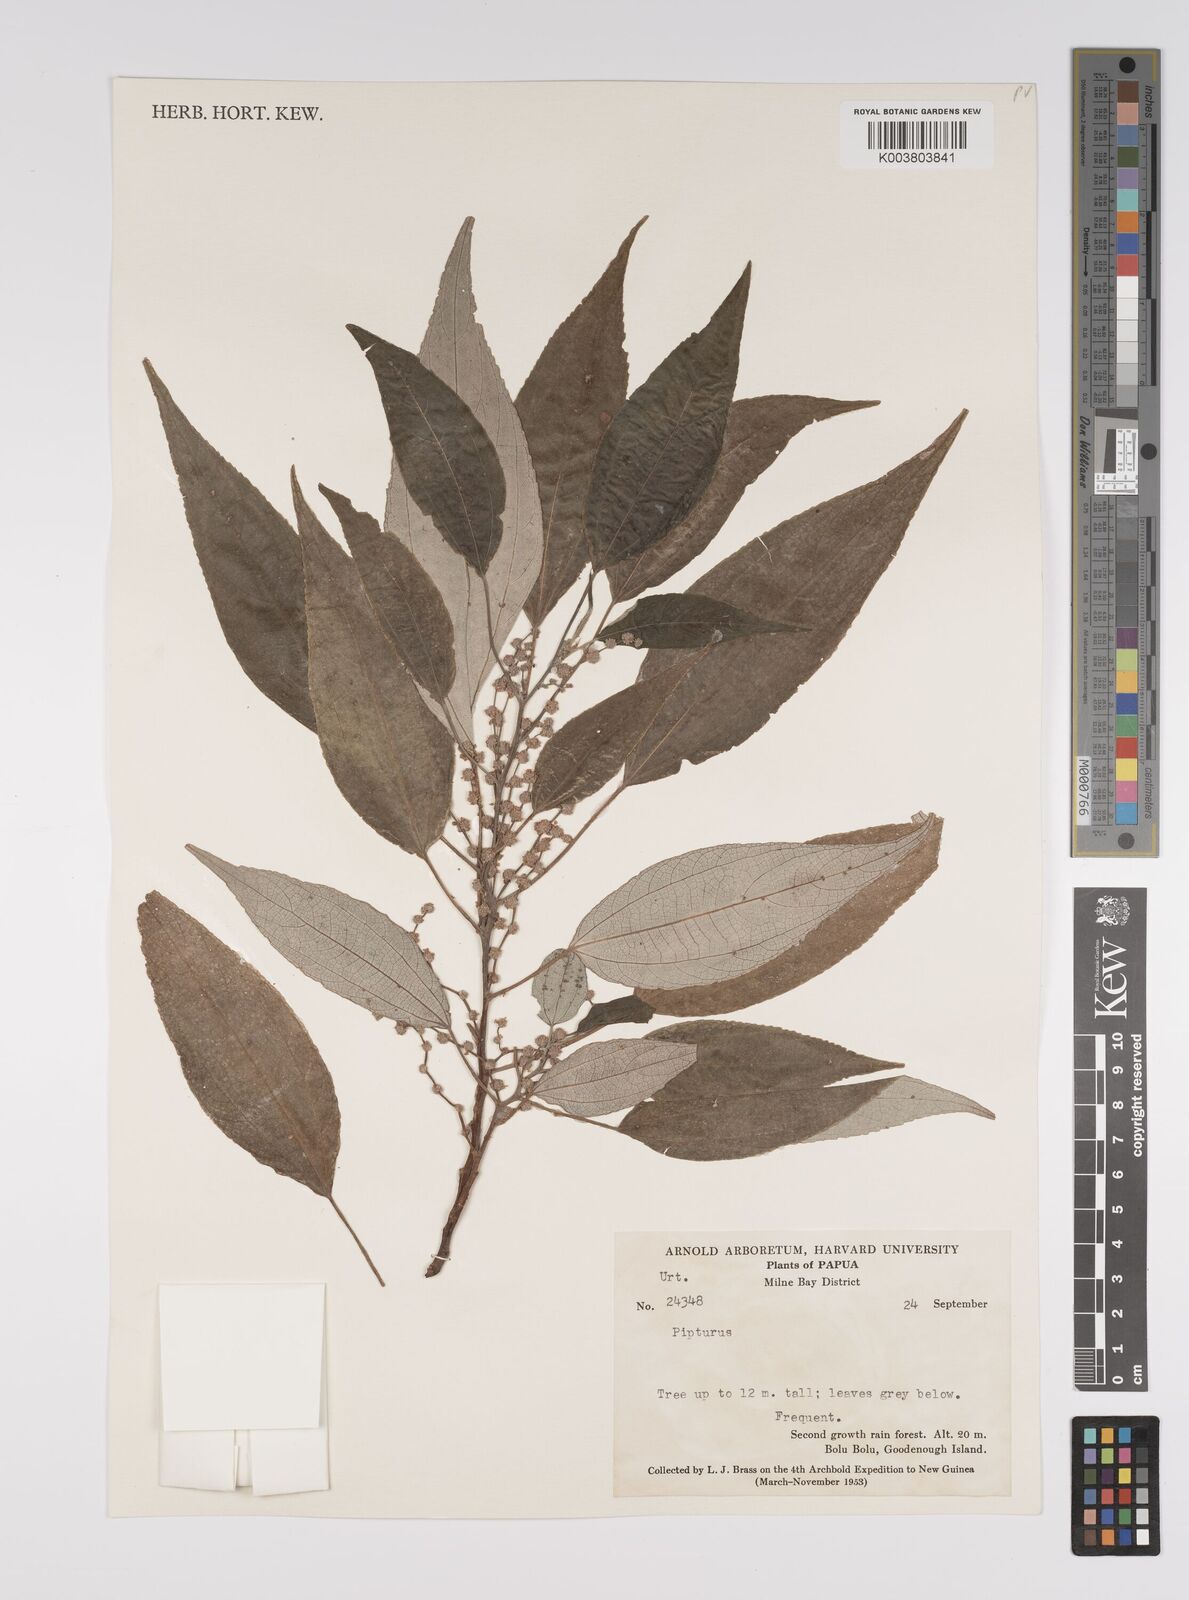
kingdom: Plantae
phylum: Tracheophyta
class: Magnoliopsida
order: Rosales
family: Urticaceae
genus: Pipturus
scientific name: Pipturus argenteus
